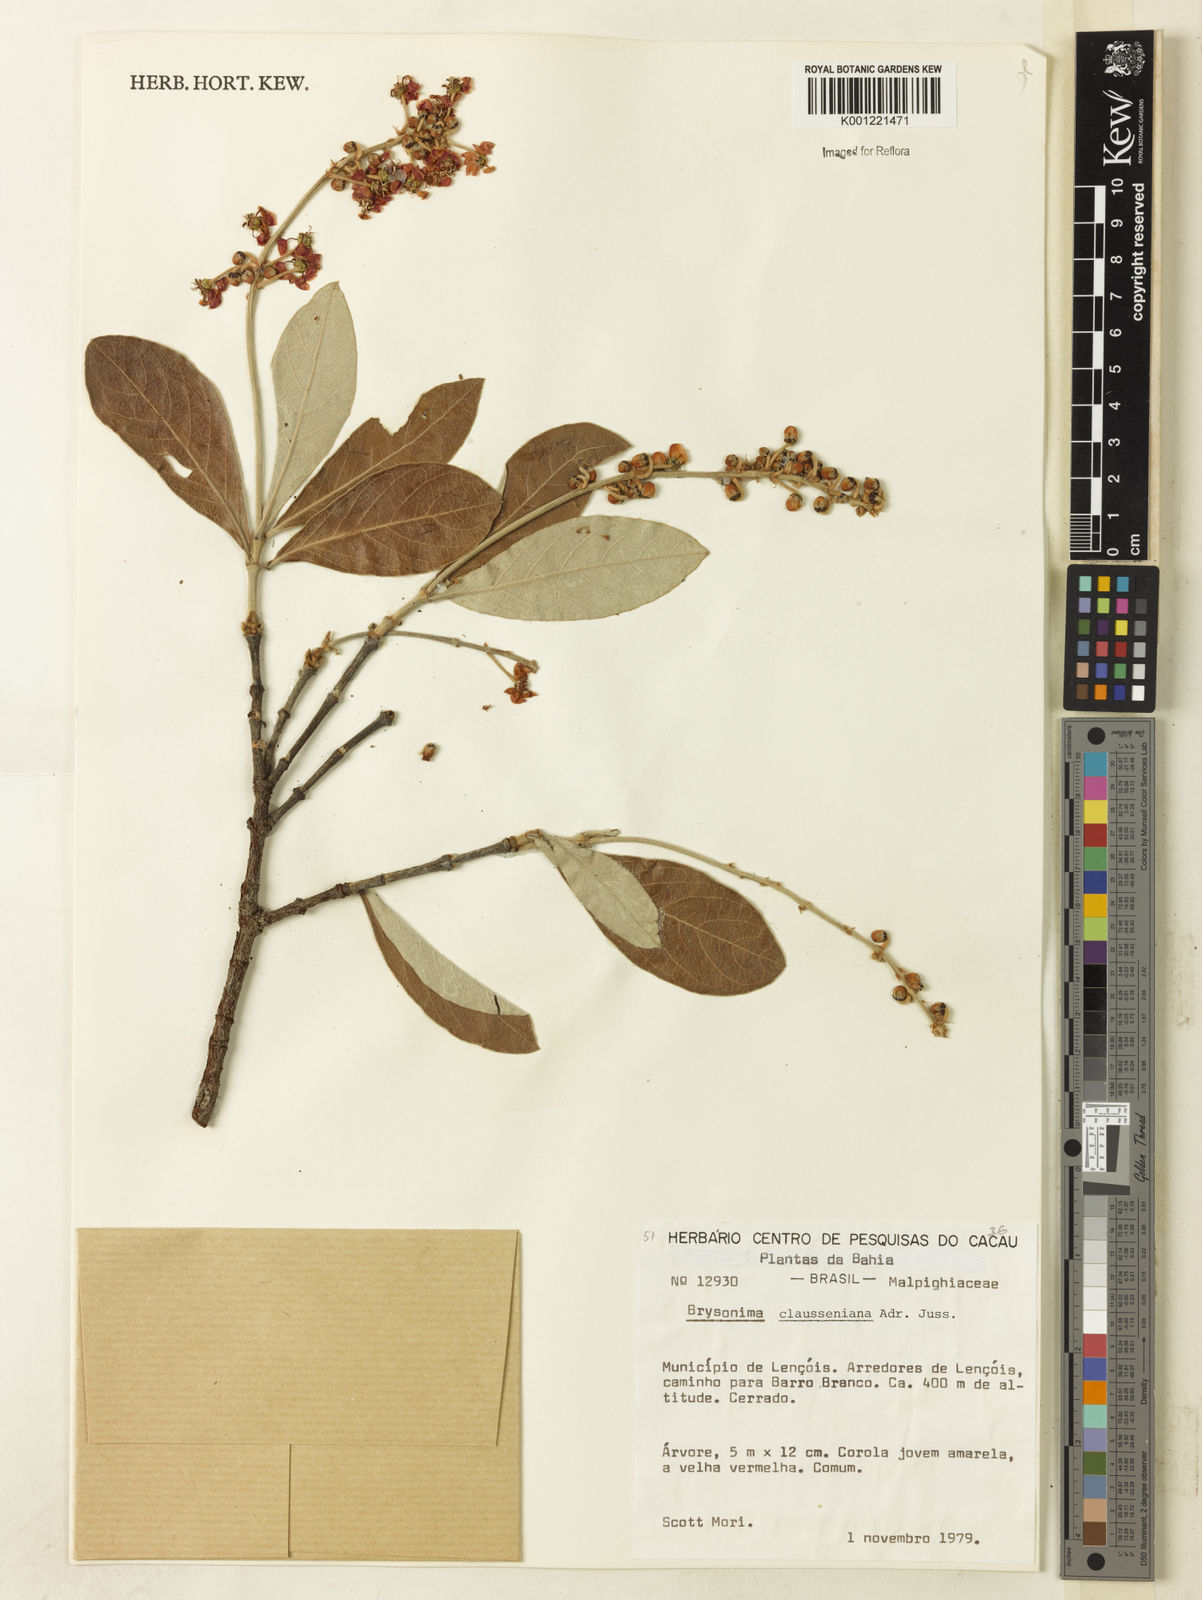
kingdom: Plantae
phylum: Tracheophyta
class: Magnoliopsida
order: Malpighiales
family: Malpighiaceae
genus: Byrsonima
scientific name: Byrsonima clausseniana
